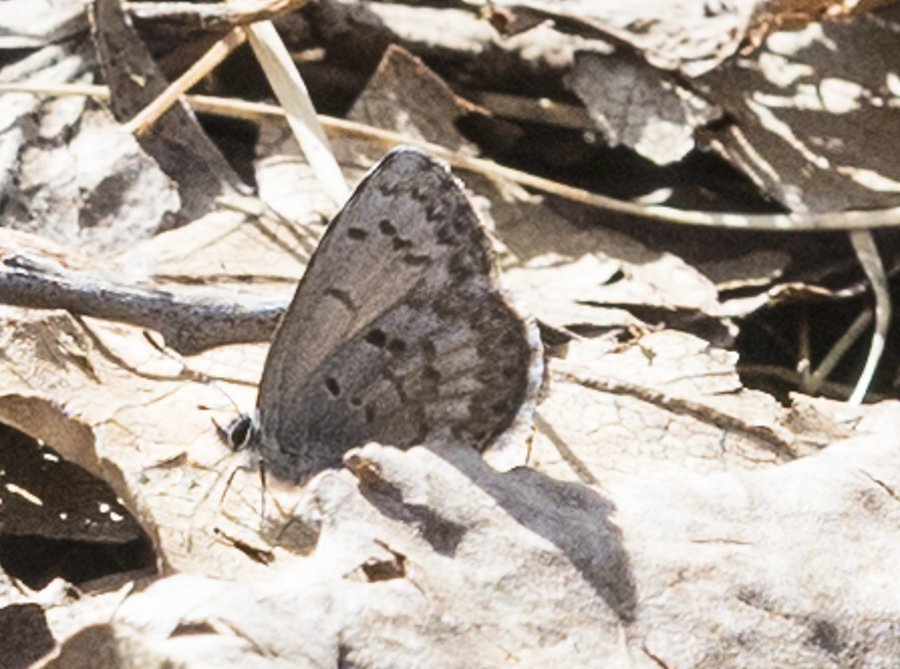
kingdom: Animalia
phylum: Arthropoda
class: Insecta
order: Lepidoptera
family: Lycaenidae
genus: Celastrina
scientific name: Celastrina lucia
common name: Northern Spring Azure
